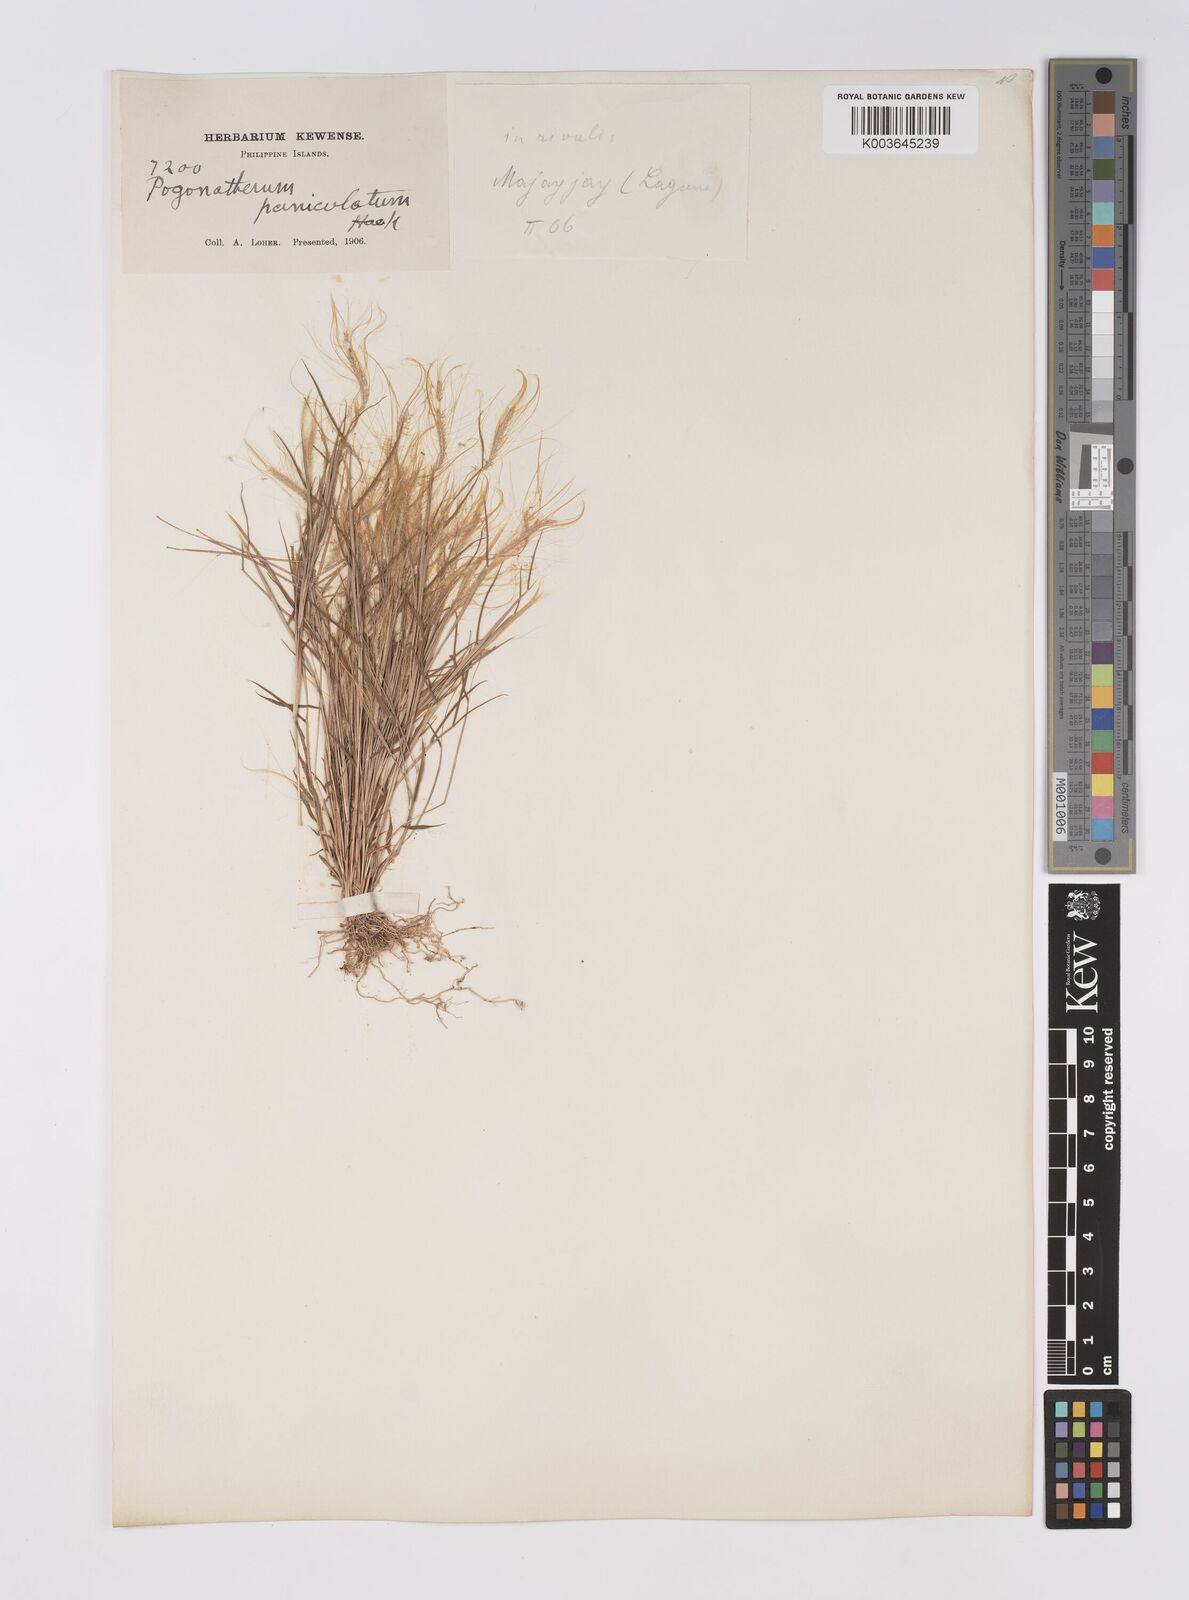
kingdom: Plantae
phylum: Tracheophyta
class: Liliopsida
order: Poales
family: Poaceae
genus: Pogonatherum
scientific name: Pogonatherum crinitum
